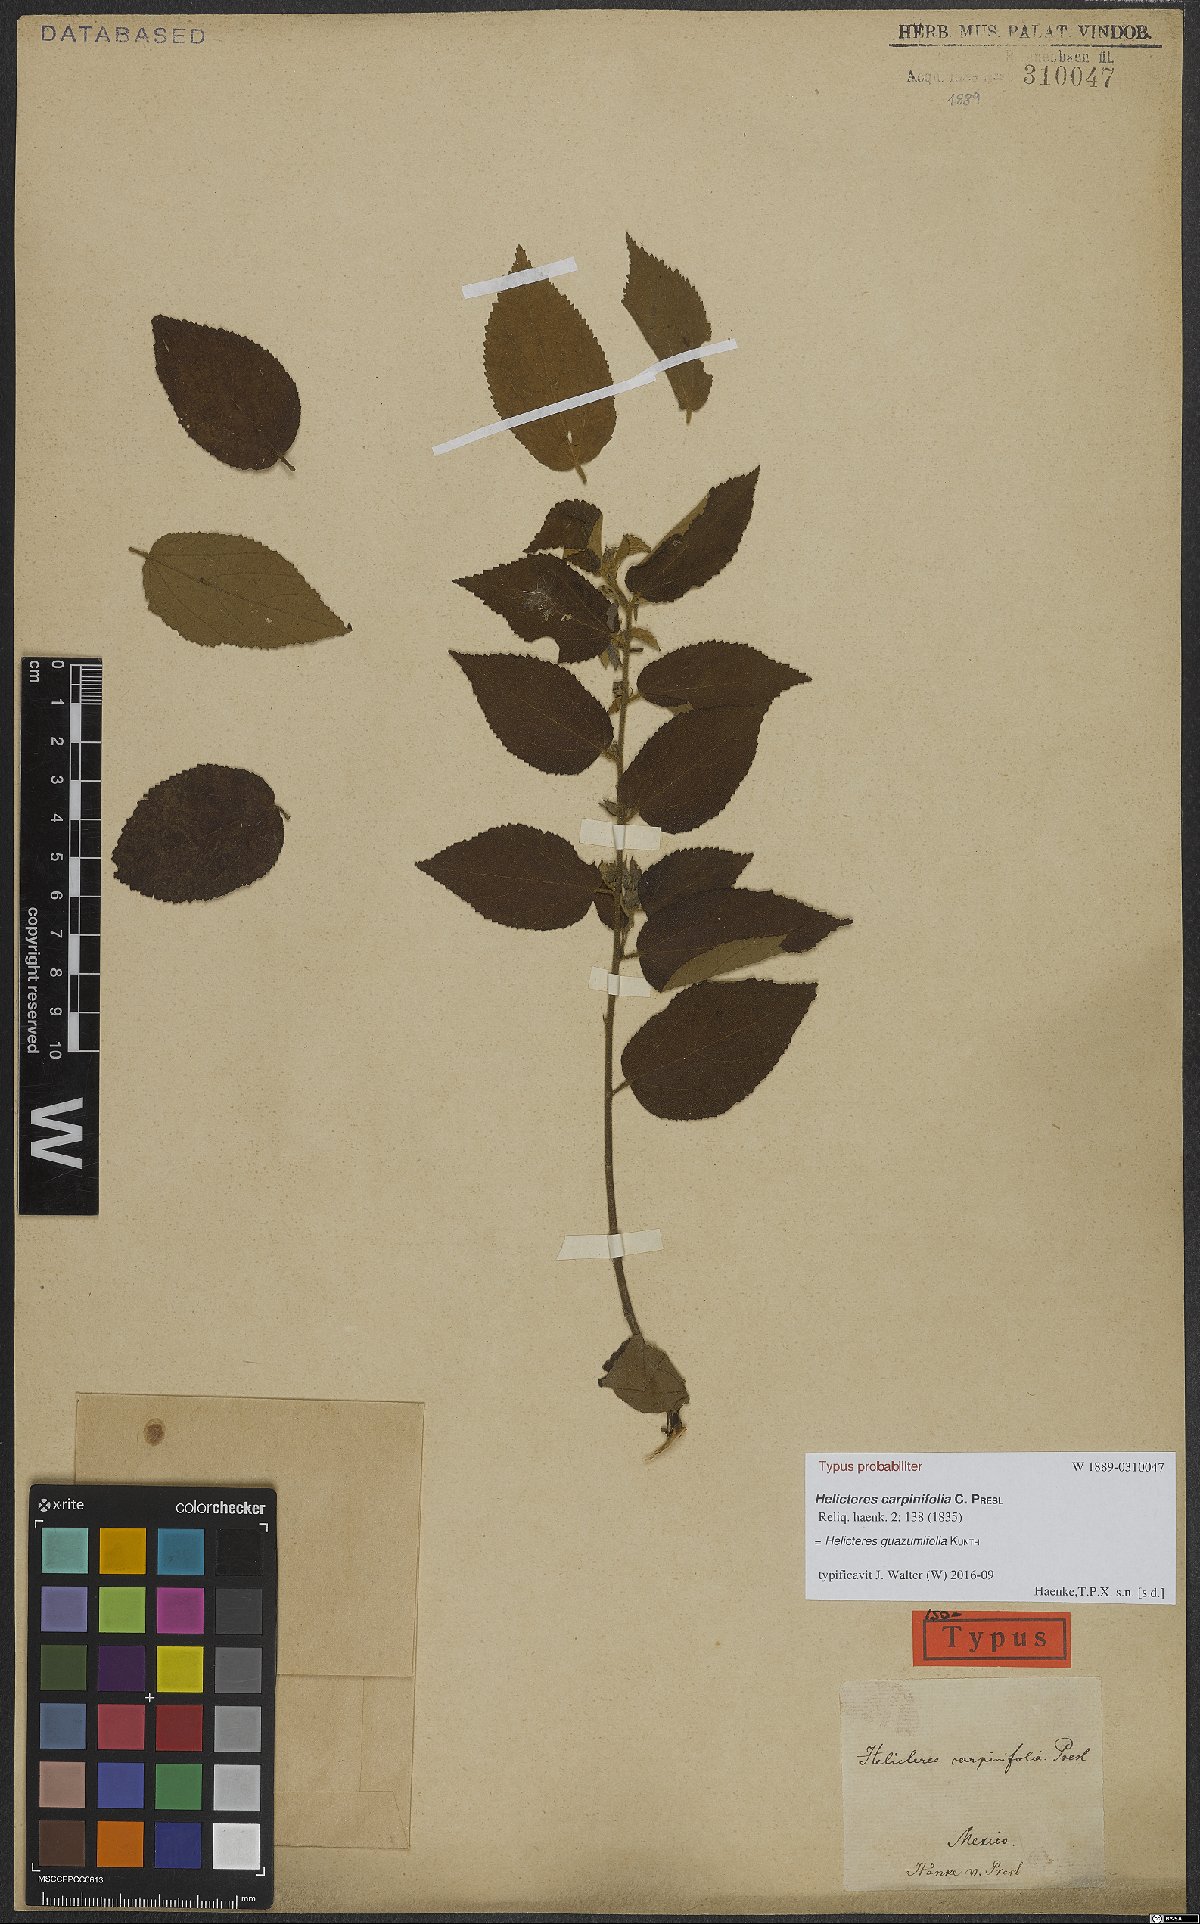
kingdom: Plantae
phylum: Tracheophyta
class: Magnoliopsida
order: Malvales
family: Malvaceae
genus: Helicteres
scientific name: Helicteres guazumifolia
